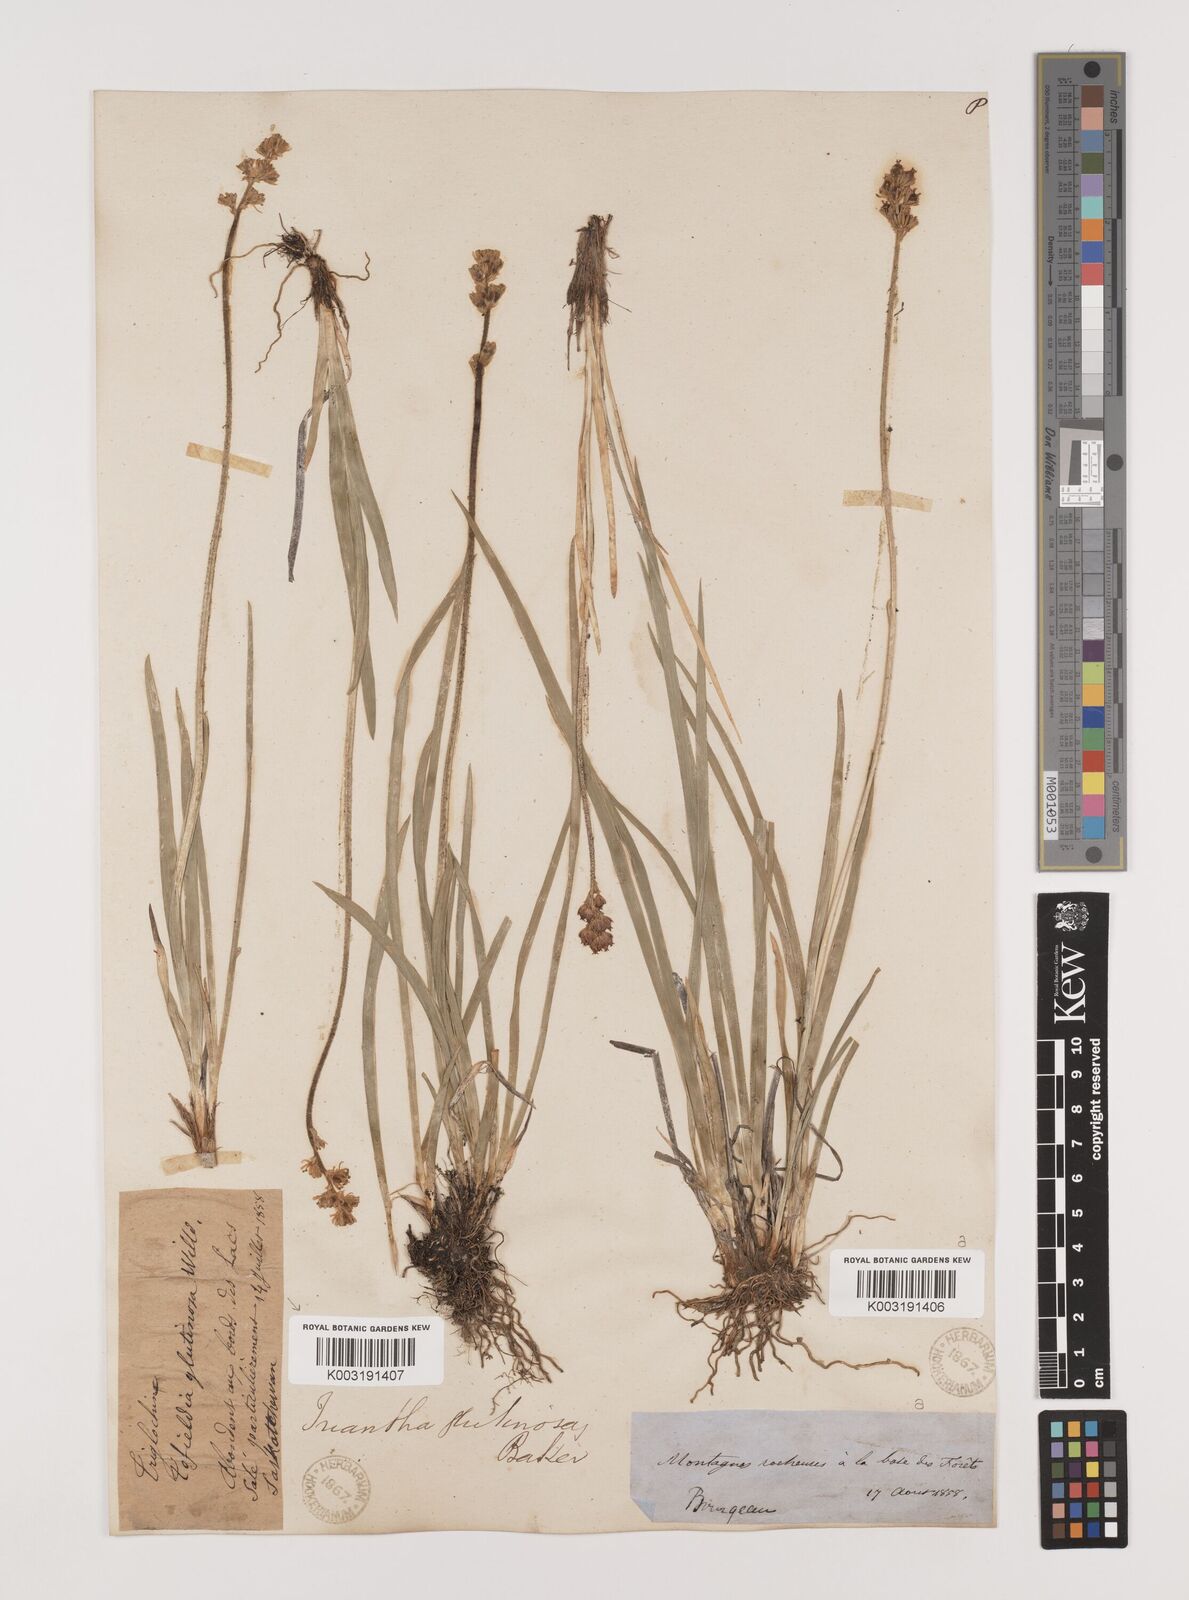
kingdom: Plantae
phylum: Tracheophyta
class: Liliopsida
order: Alismatales
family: Tofieldiaceae
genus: Triantha
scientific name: Triantha glutinosa
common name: Glutinous tofieldia
